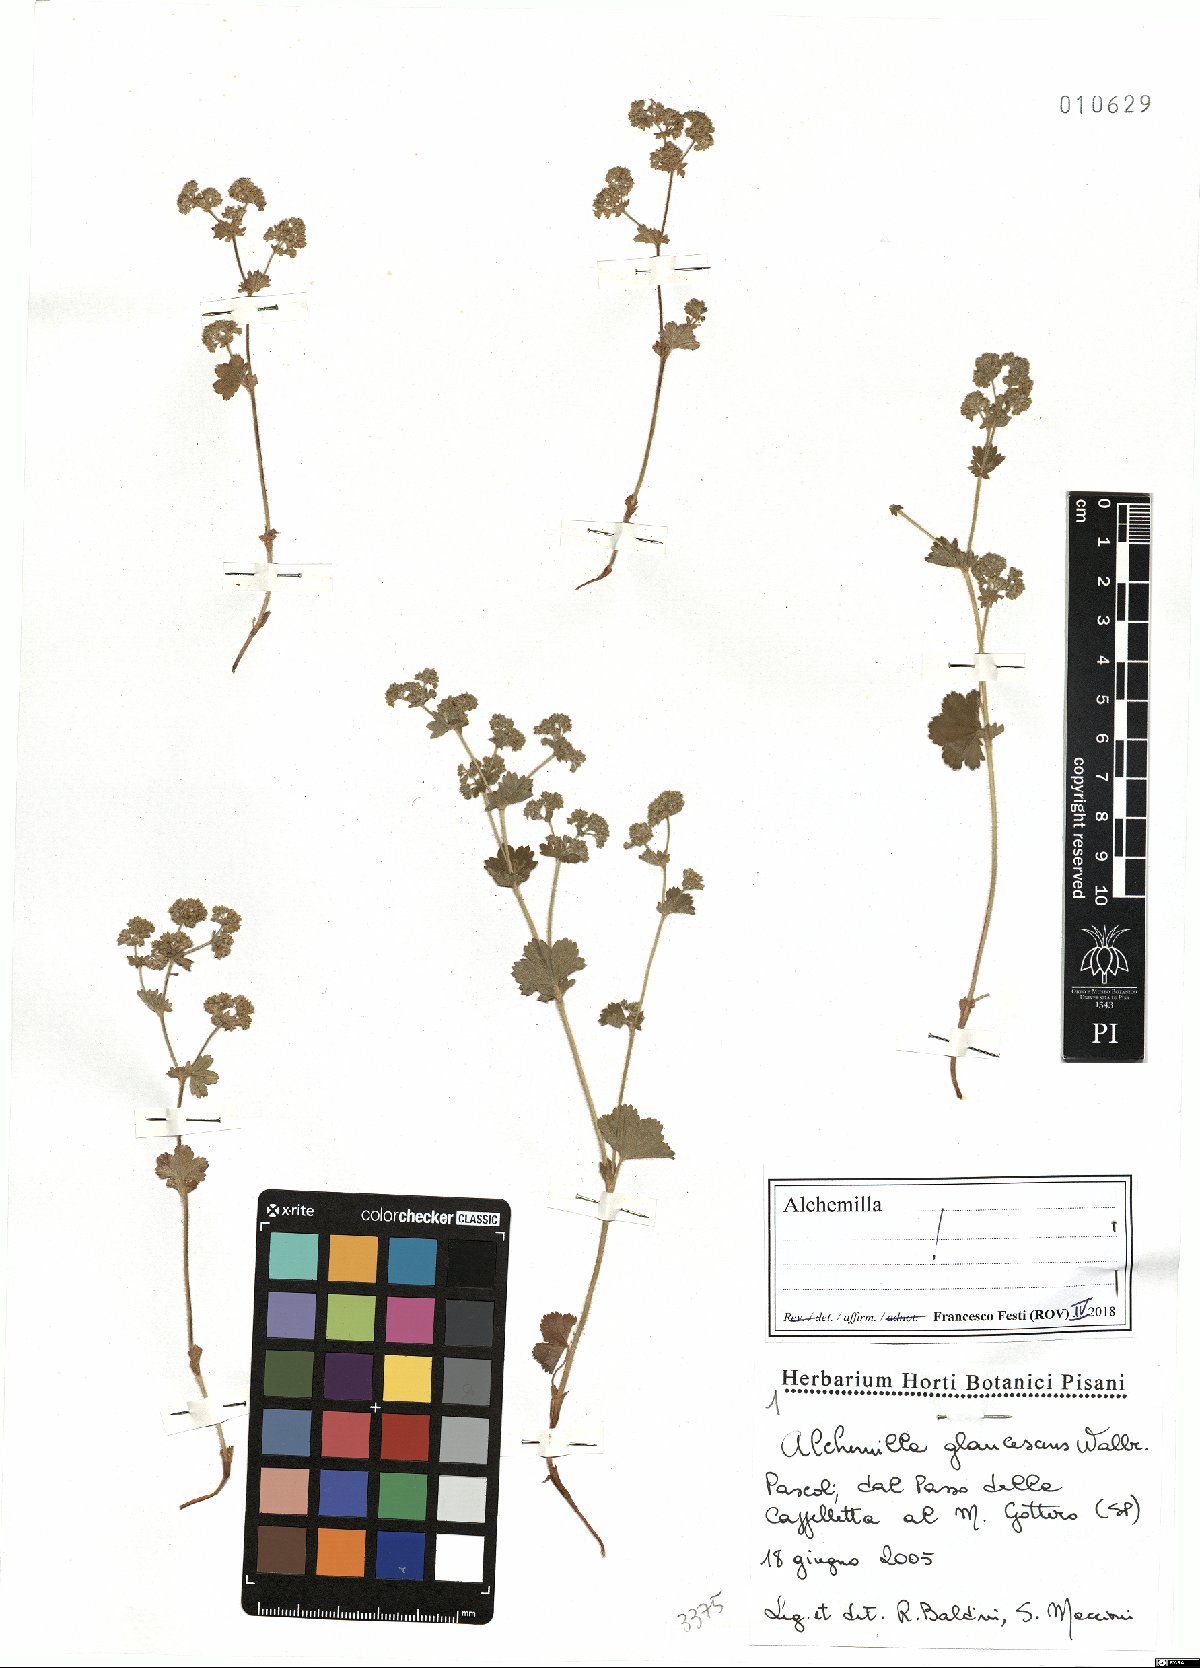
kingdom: Plantae
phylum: Tracheophyta
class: Magnoliopsida
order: Rosales
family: Rosaceae
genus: Alchemilla
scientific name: Alchemilla glaucescens
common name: Silky lady's mantle
